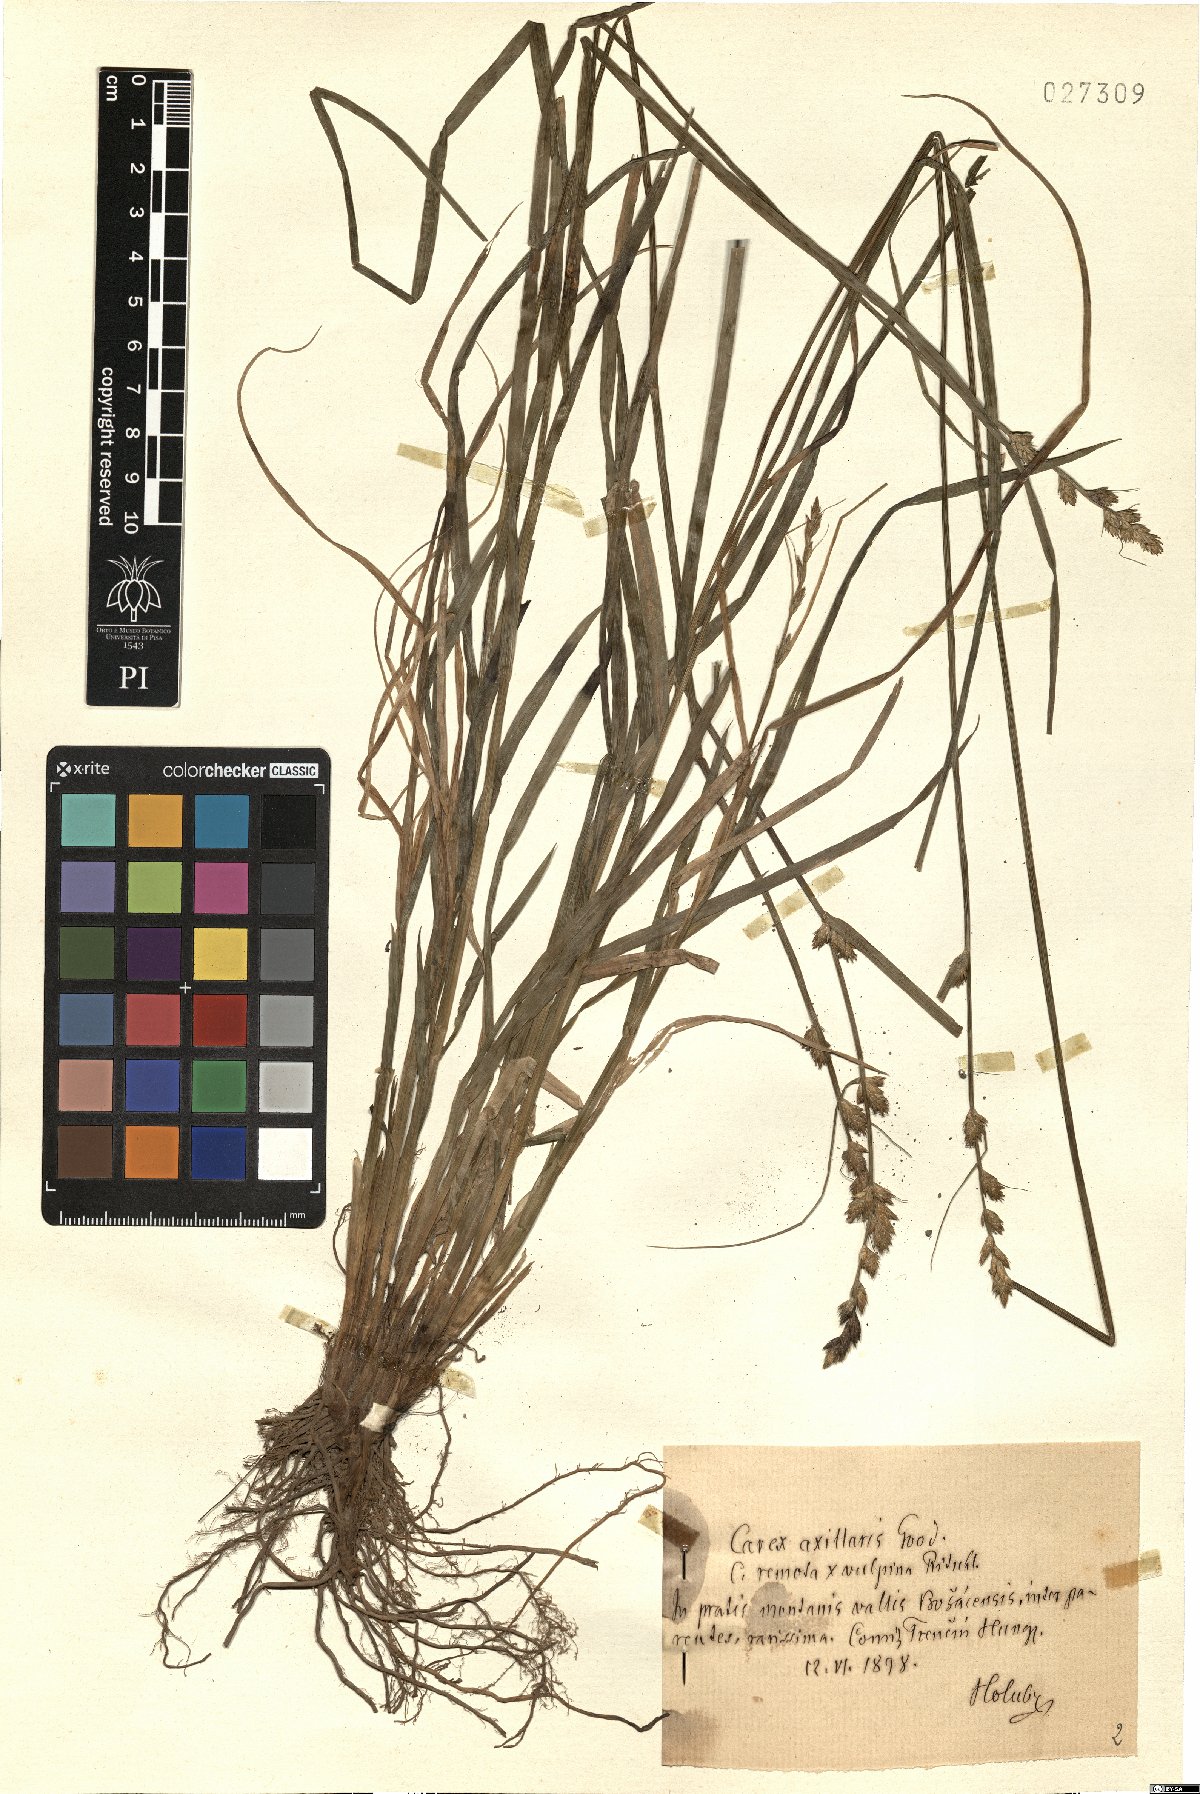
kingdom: Plantae
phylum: Tracheophyta
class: Liliopsida
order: Poales
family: Cyperaceae
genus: Carex
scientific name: Carex remota
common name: Remote sedge
